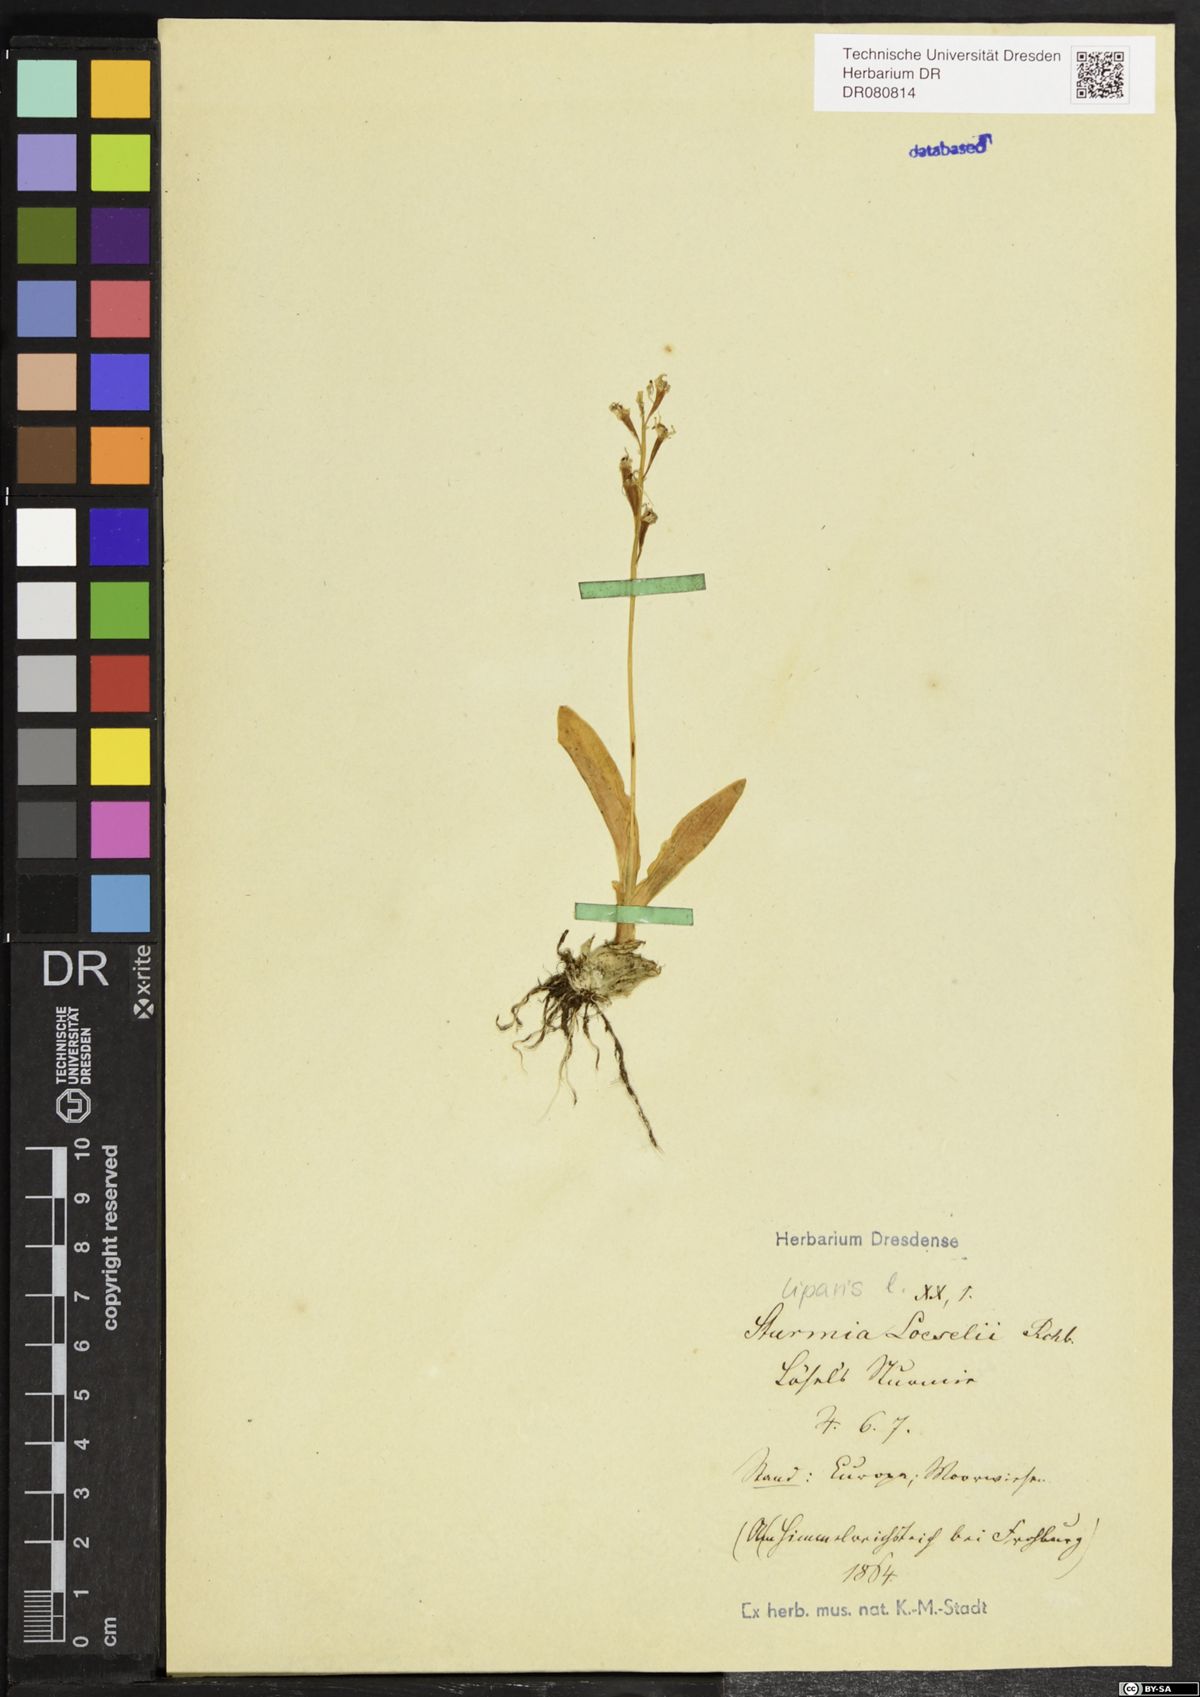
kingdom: Animalia
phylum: Arthropoda
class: Insecta
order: Coleoptera
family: Curculionidae
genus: Liparis
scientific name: Liparis loeselii
